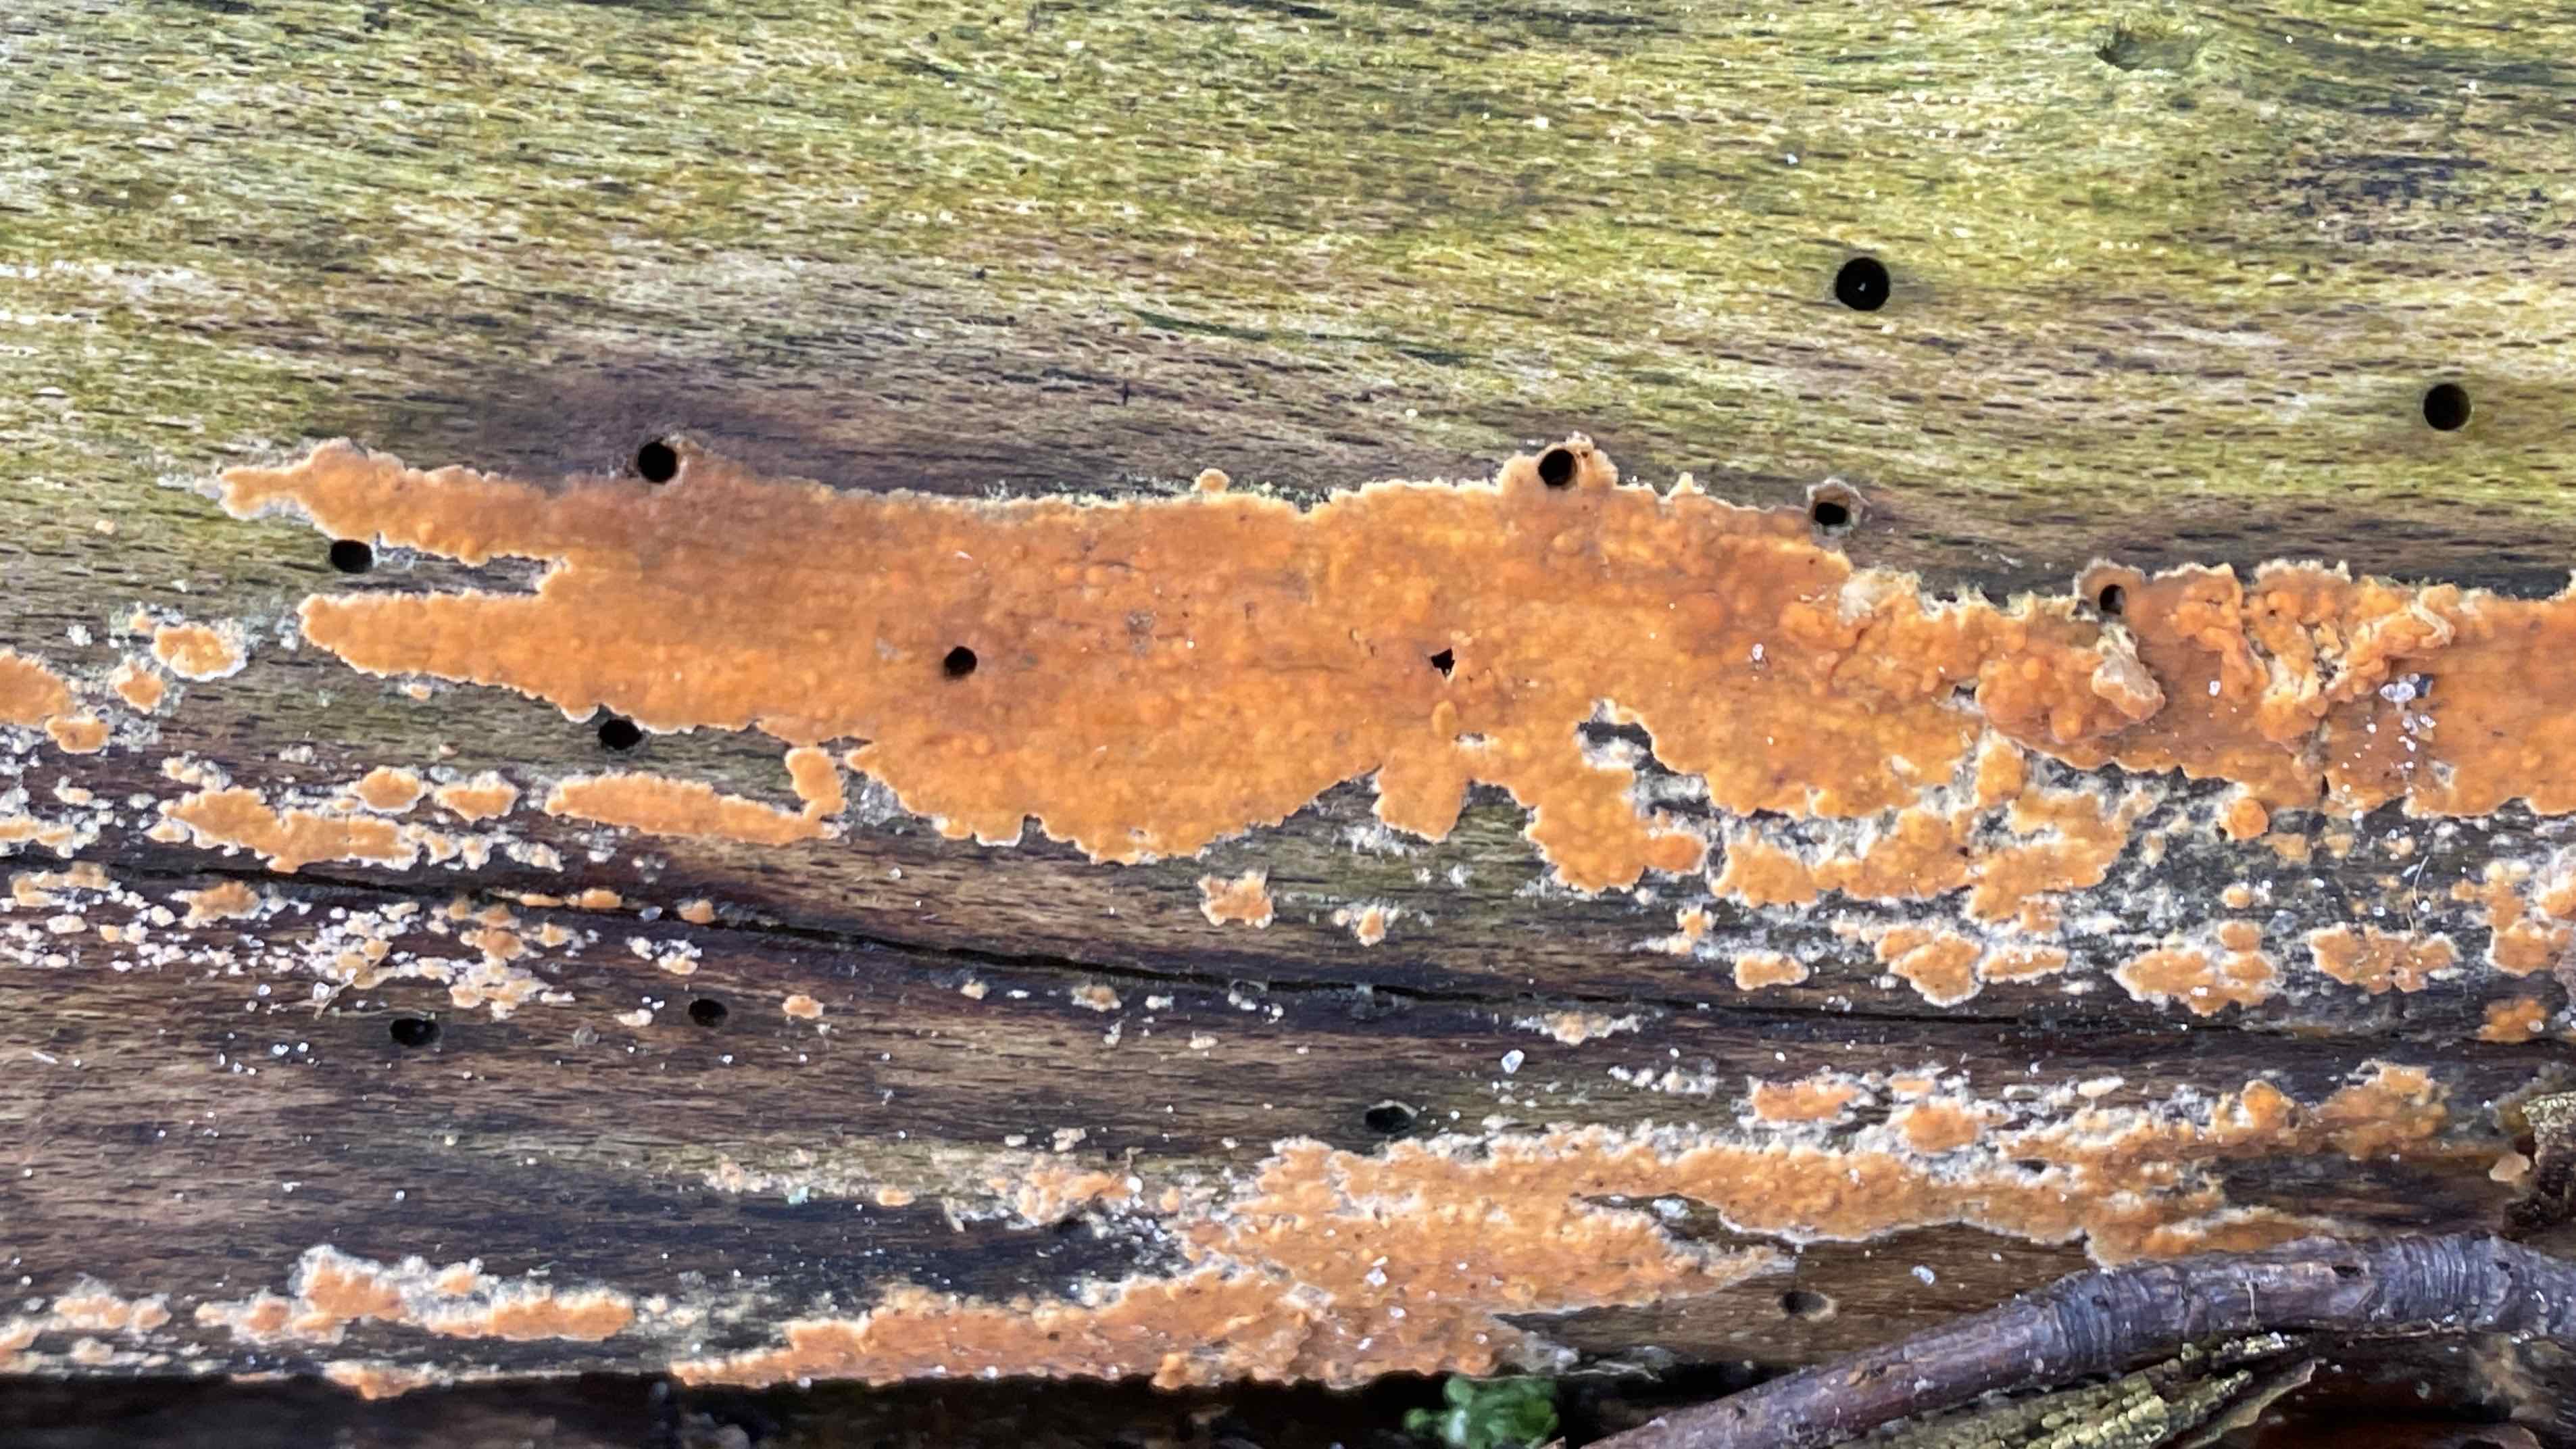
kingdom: Fungi
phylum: Basidiomycota
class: Agaricomycetes
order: Russulales
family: Peniophoraceae
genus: Peniophora
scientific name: Peniophora incarnata
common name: laksefarvet voksskind
